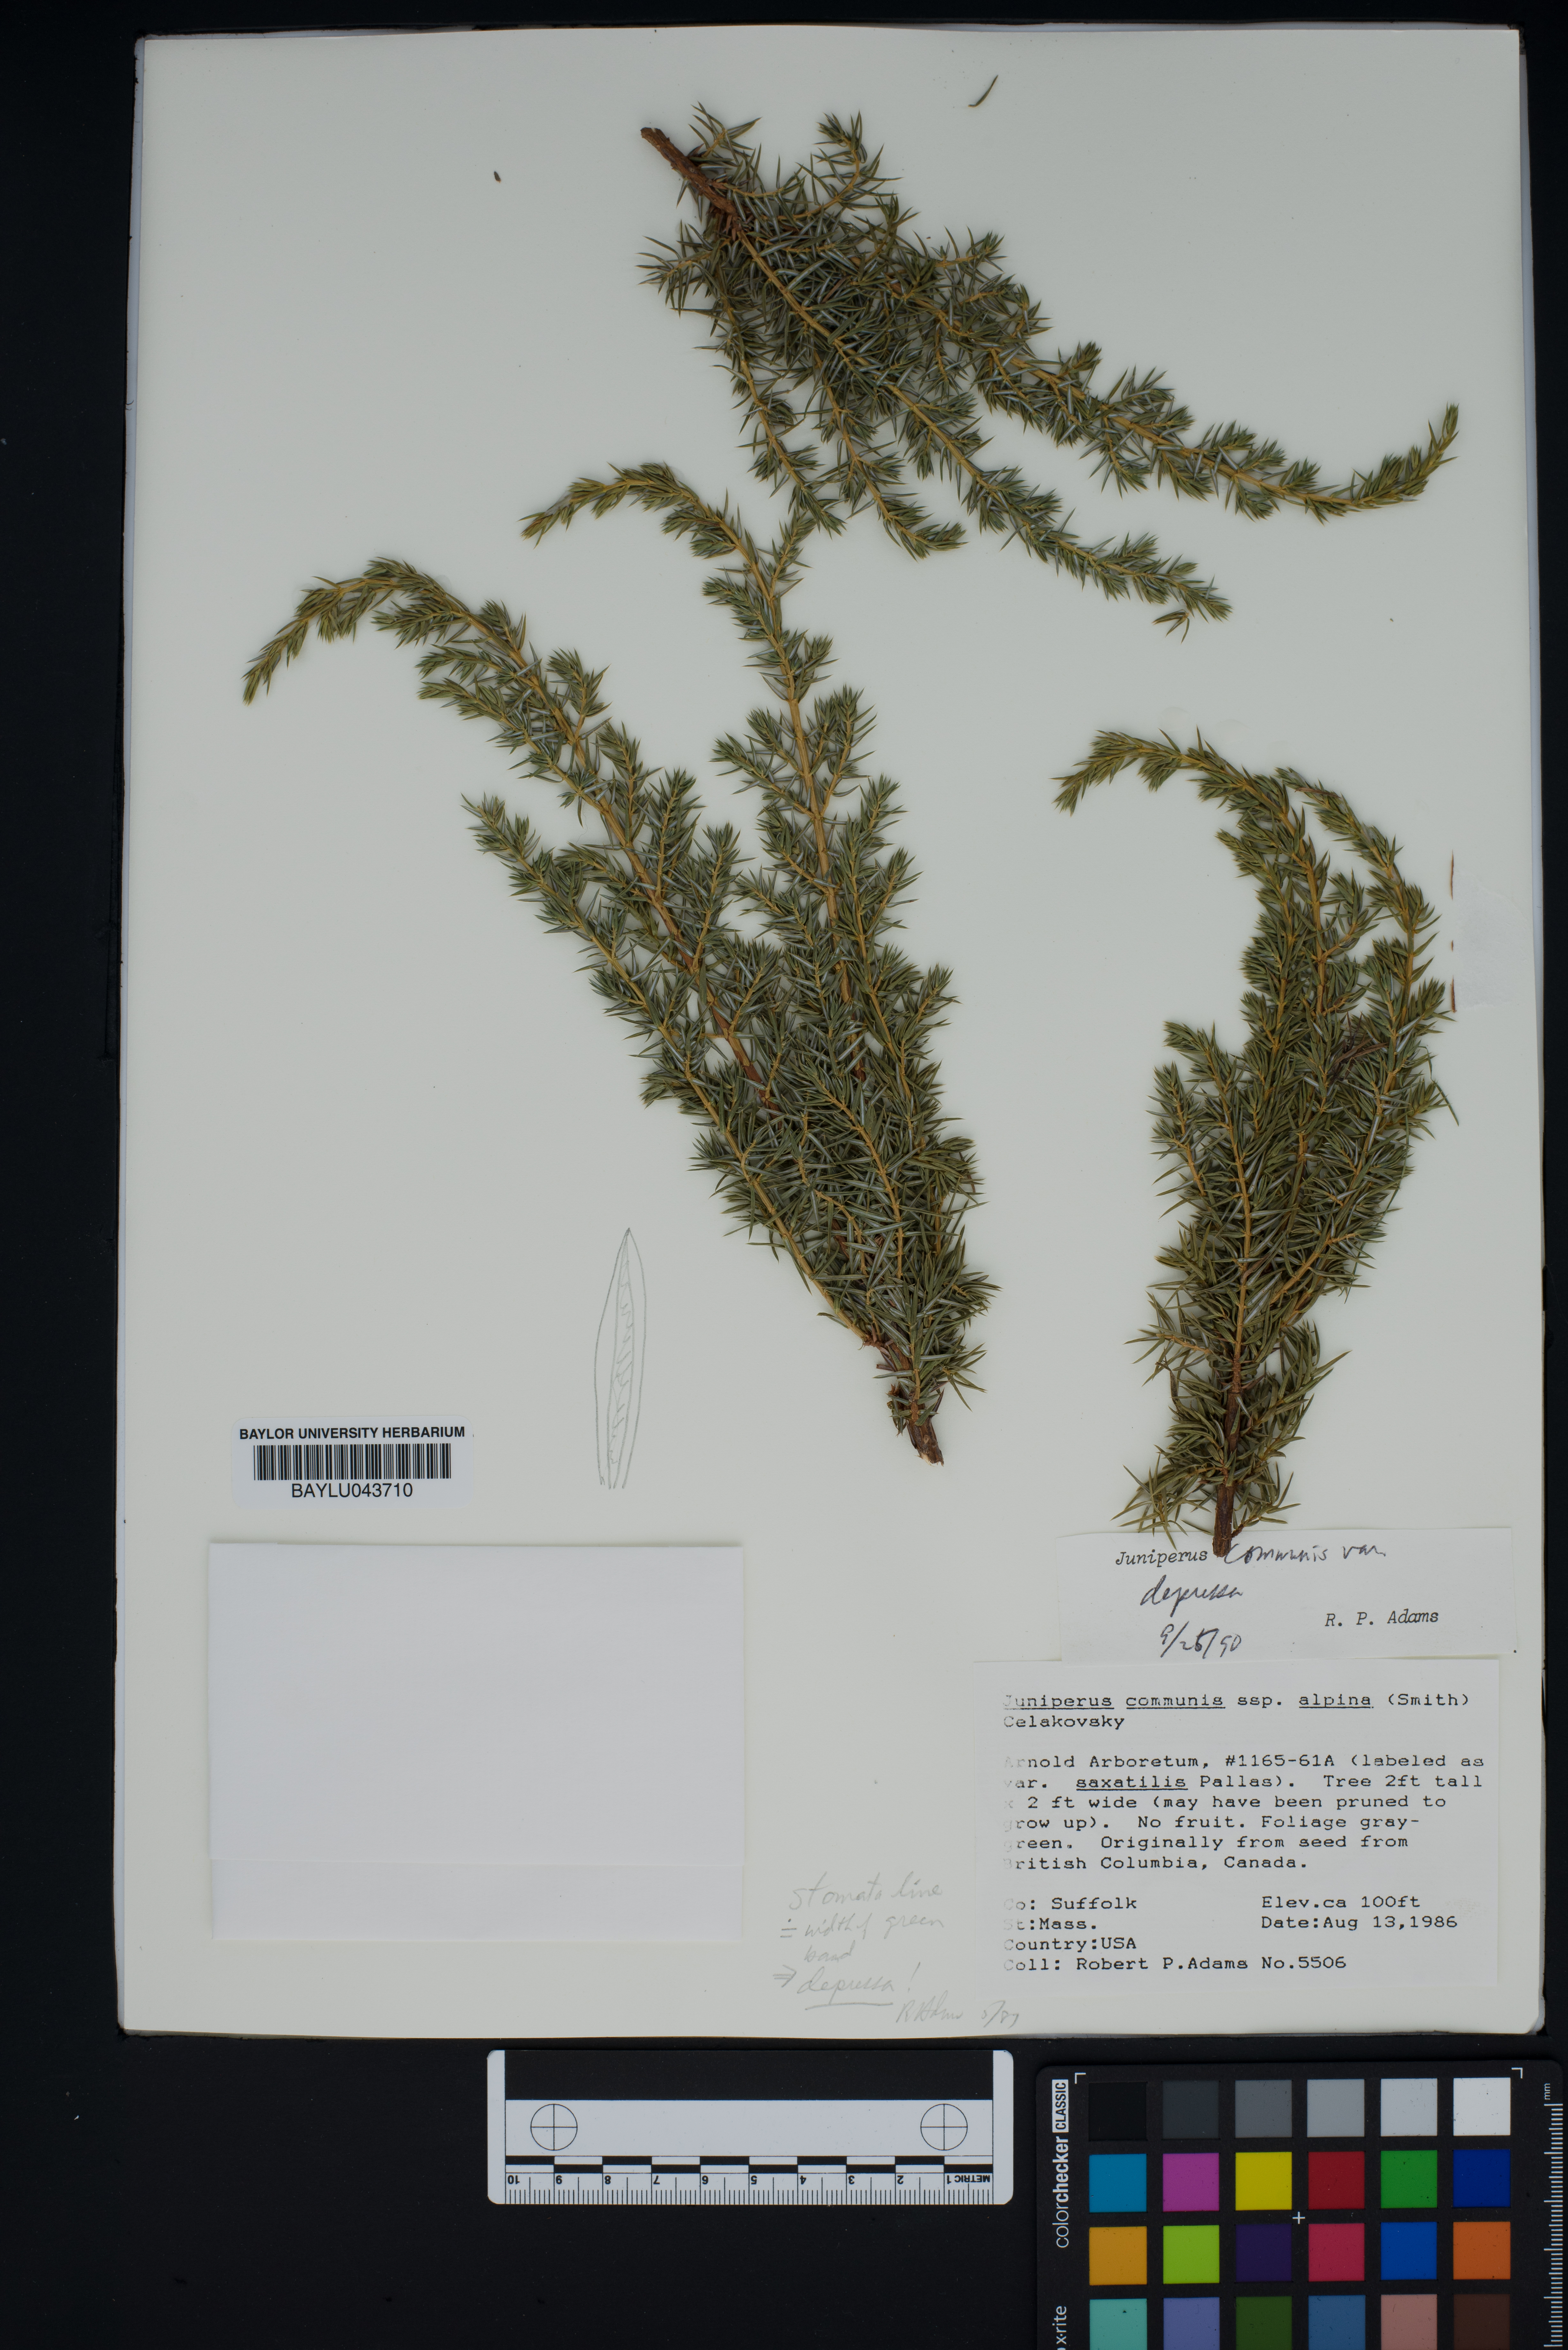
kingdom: Plantae
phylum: Tracheophyta
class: Pinopsida
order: Pinales
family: Cupressaceae
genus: Juniperus
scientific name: Juniperus communis
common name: Common juniper
